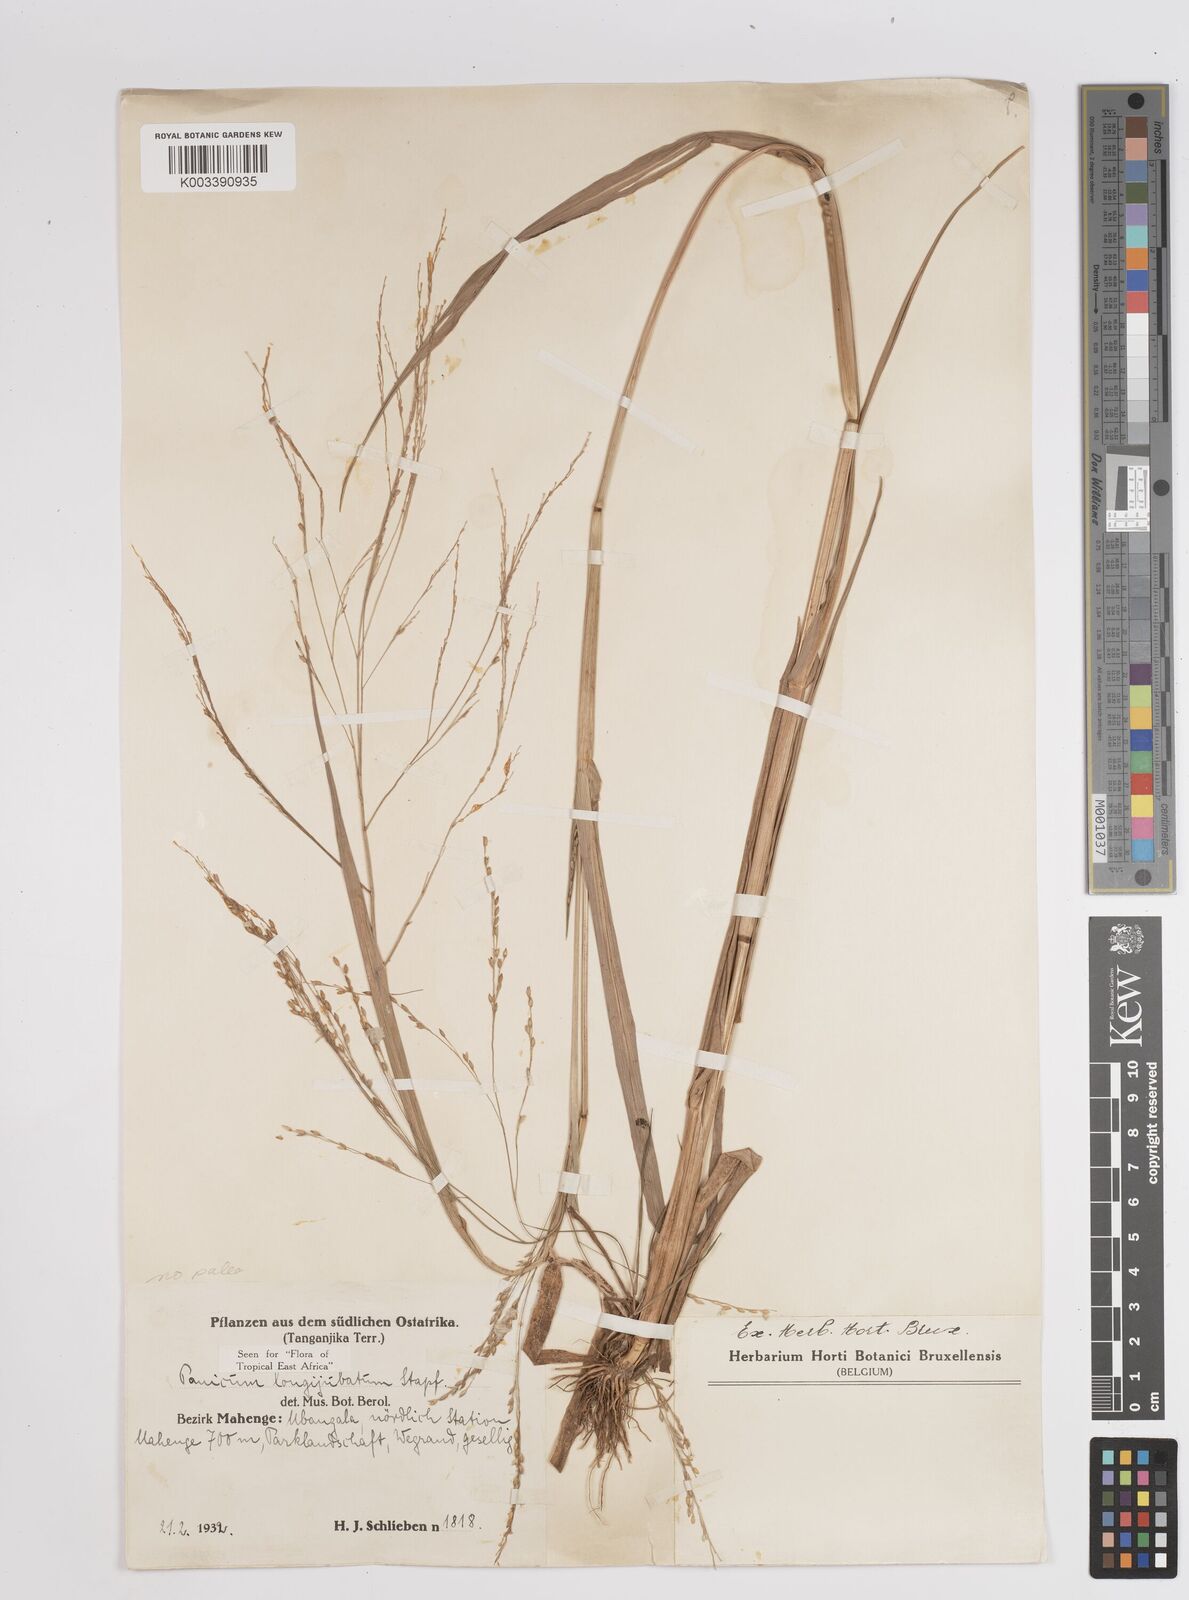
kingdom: Plantae
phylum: Tracheophyta
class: Liliopsida
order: Poales
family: Poaceae
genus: Panicum
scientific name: Panicum subalbidum
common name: Elbow buffalo grass
